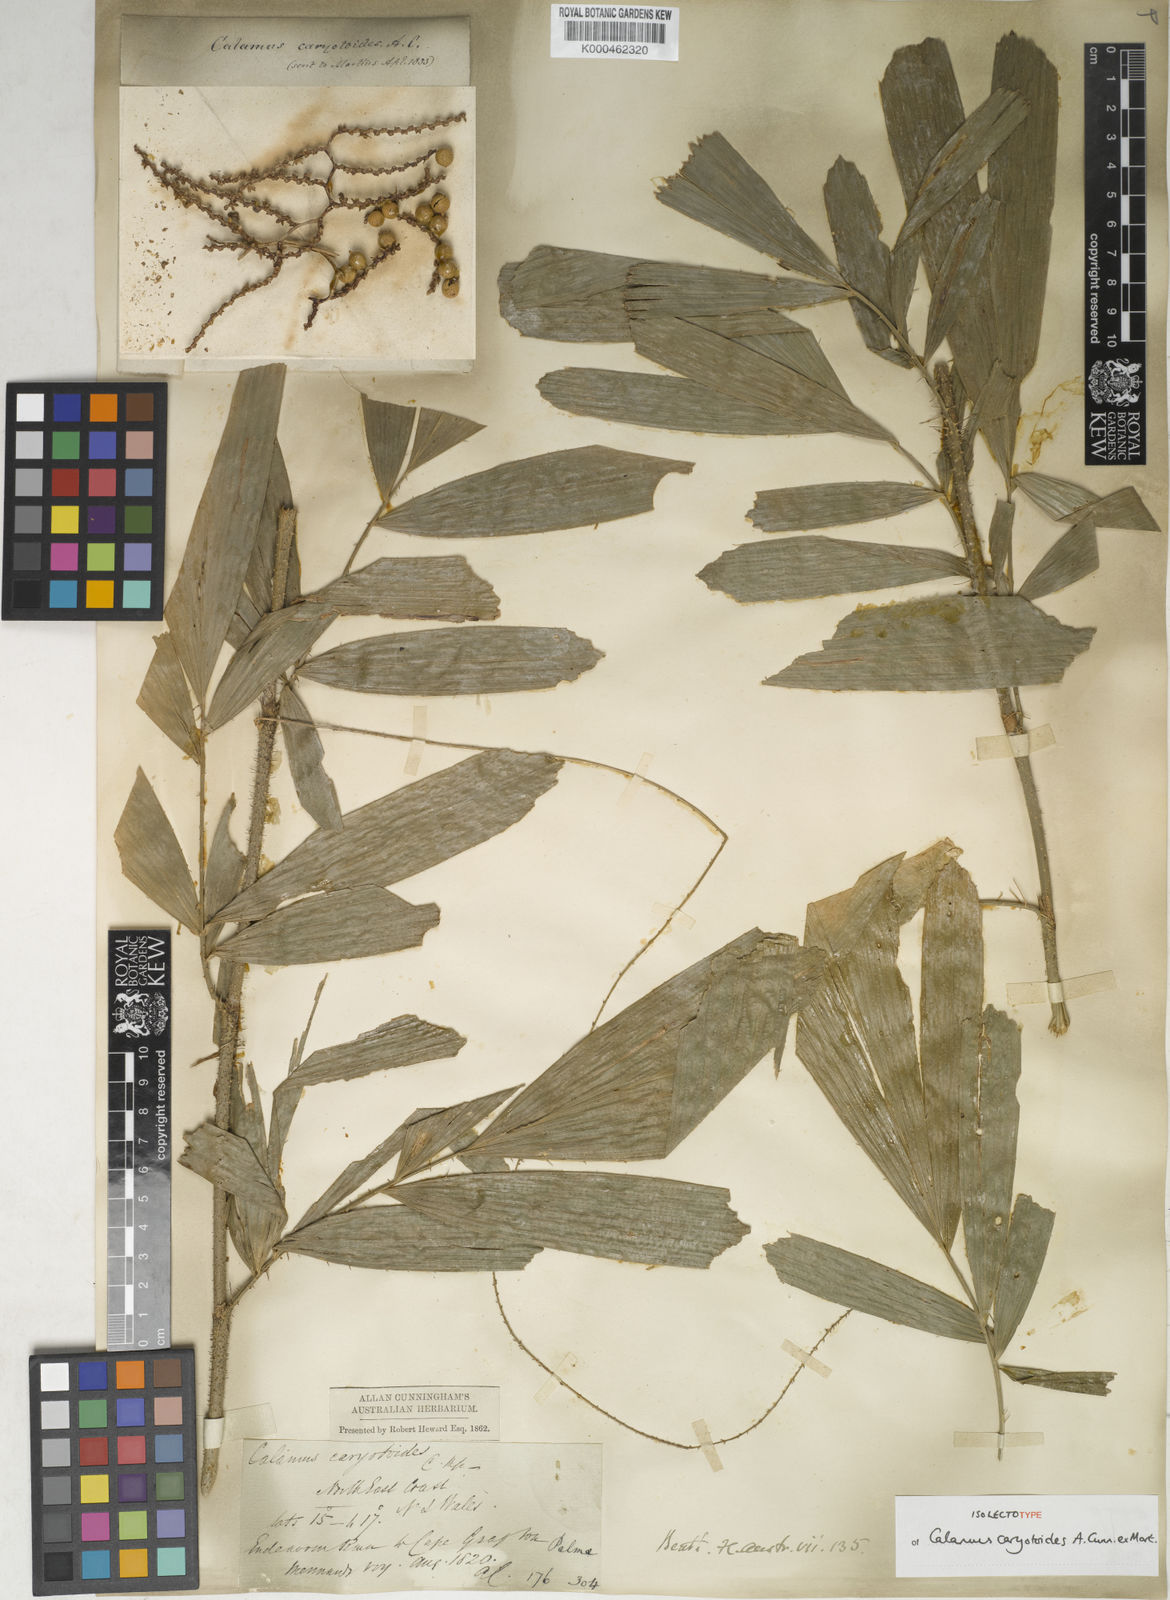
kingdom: Plantae
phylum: Tracheophyta
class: Liliopsida
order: Arecales
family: Arecaceae
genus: Calamus
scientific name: Calamus caryotoides
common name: Fishtail lawyer cane
